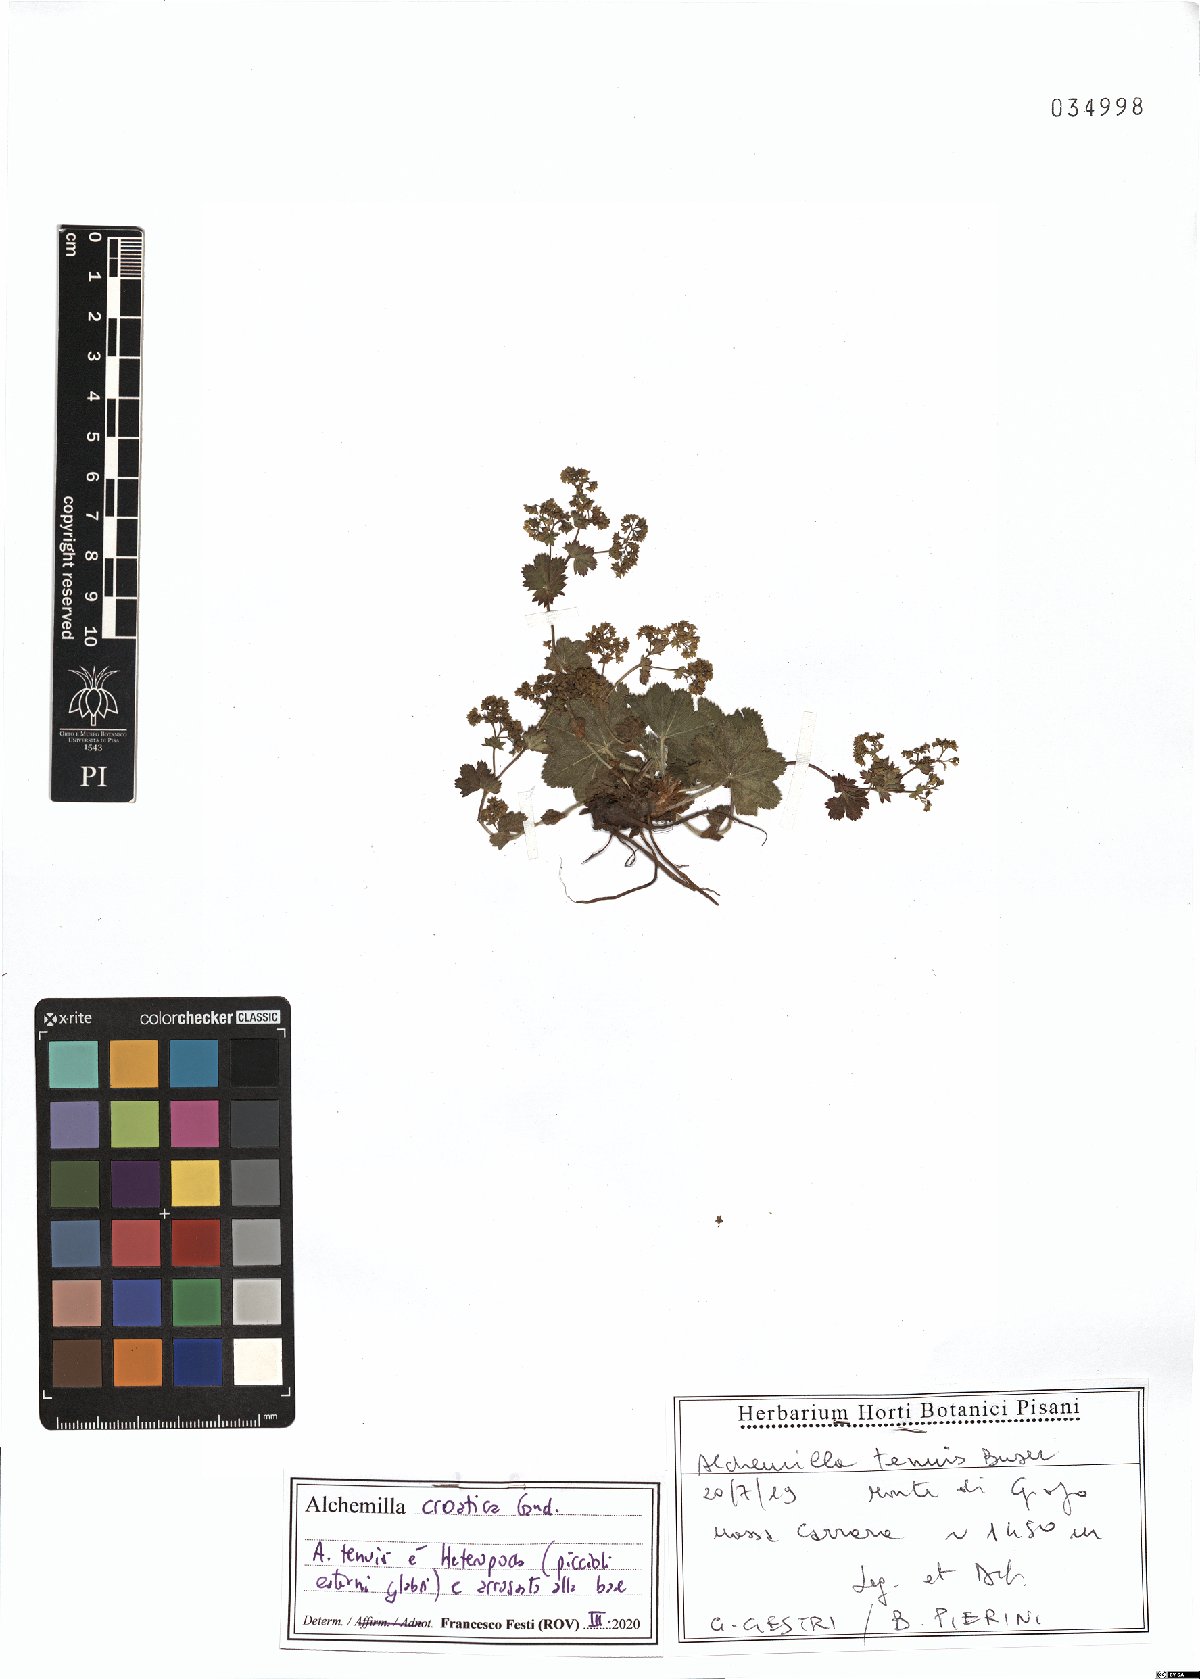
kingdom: Plantae
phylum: Tracheophyta
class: Magnoliopsida
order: Rosales
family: Rosaceae
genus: Alchemilla
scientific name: Alchemilla croatica
